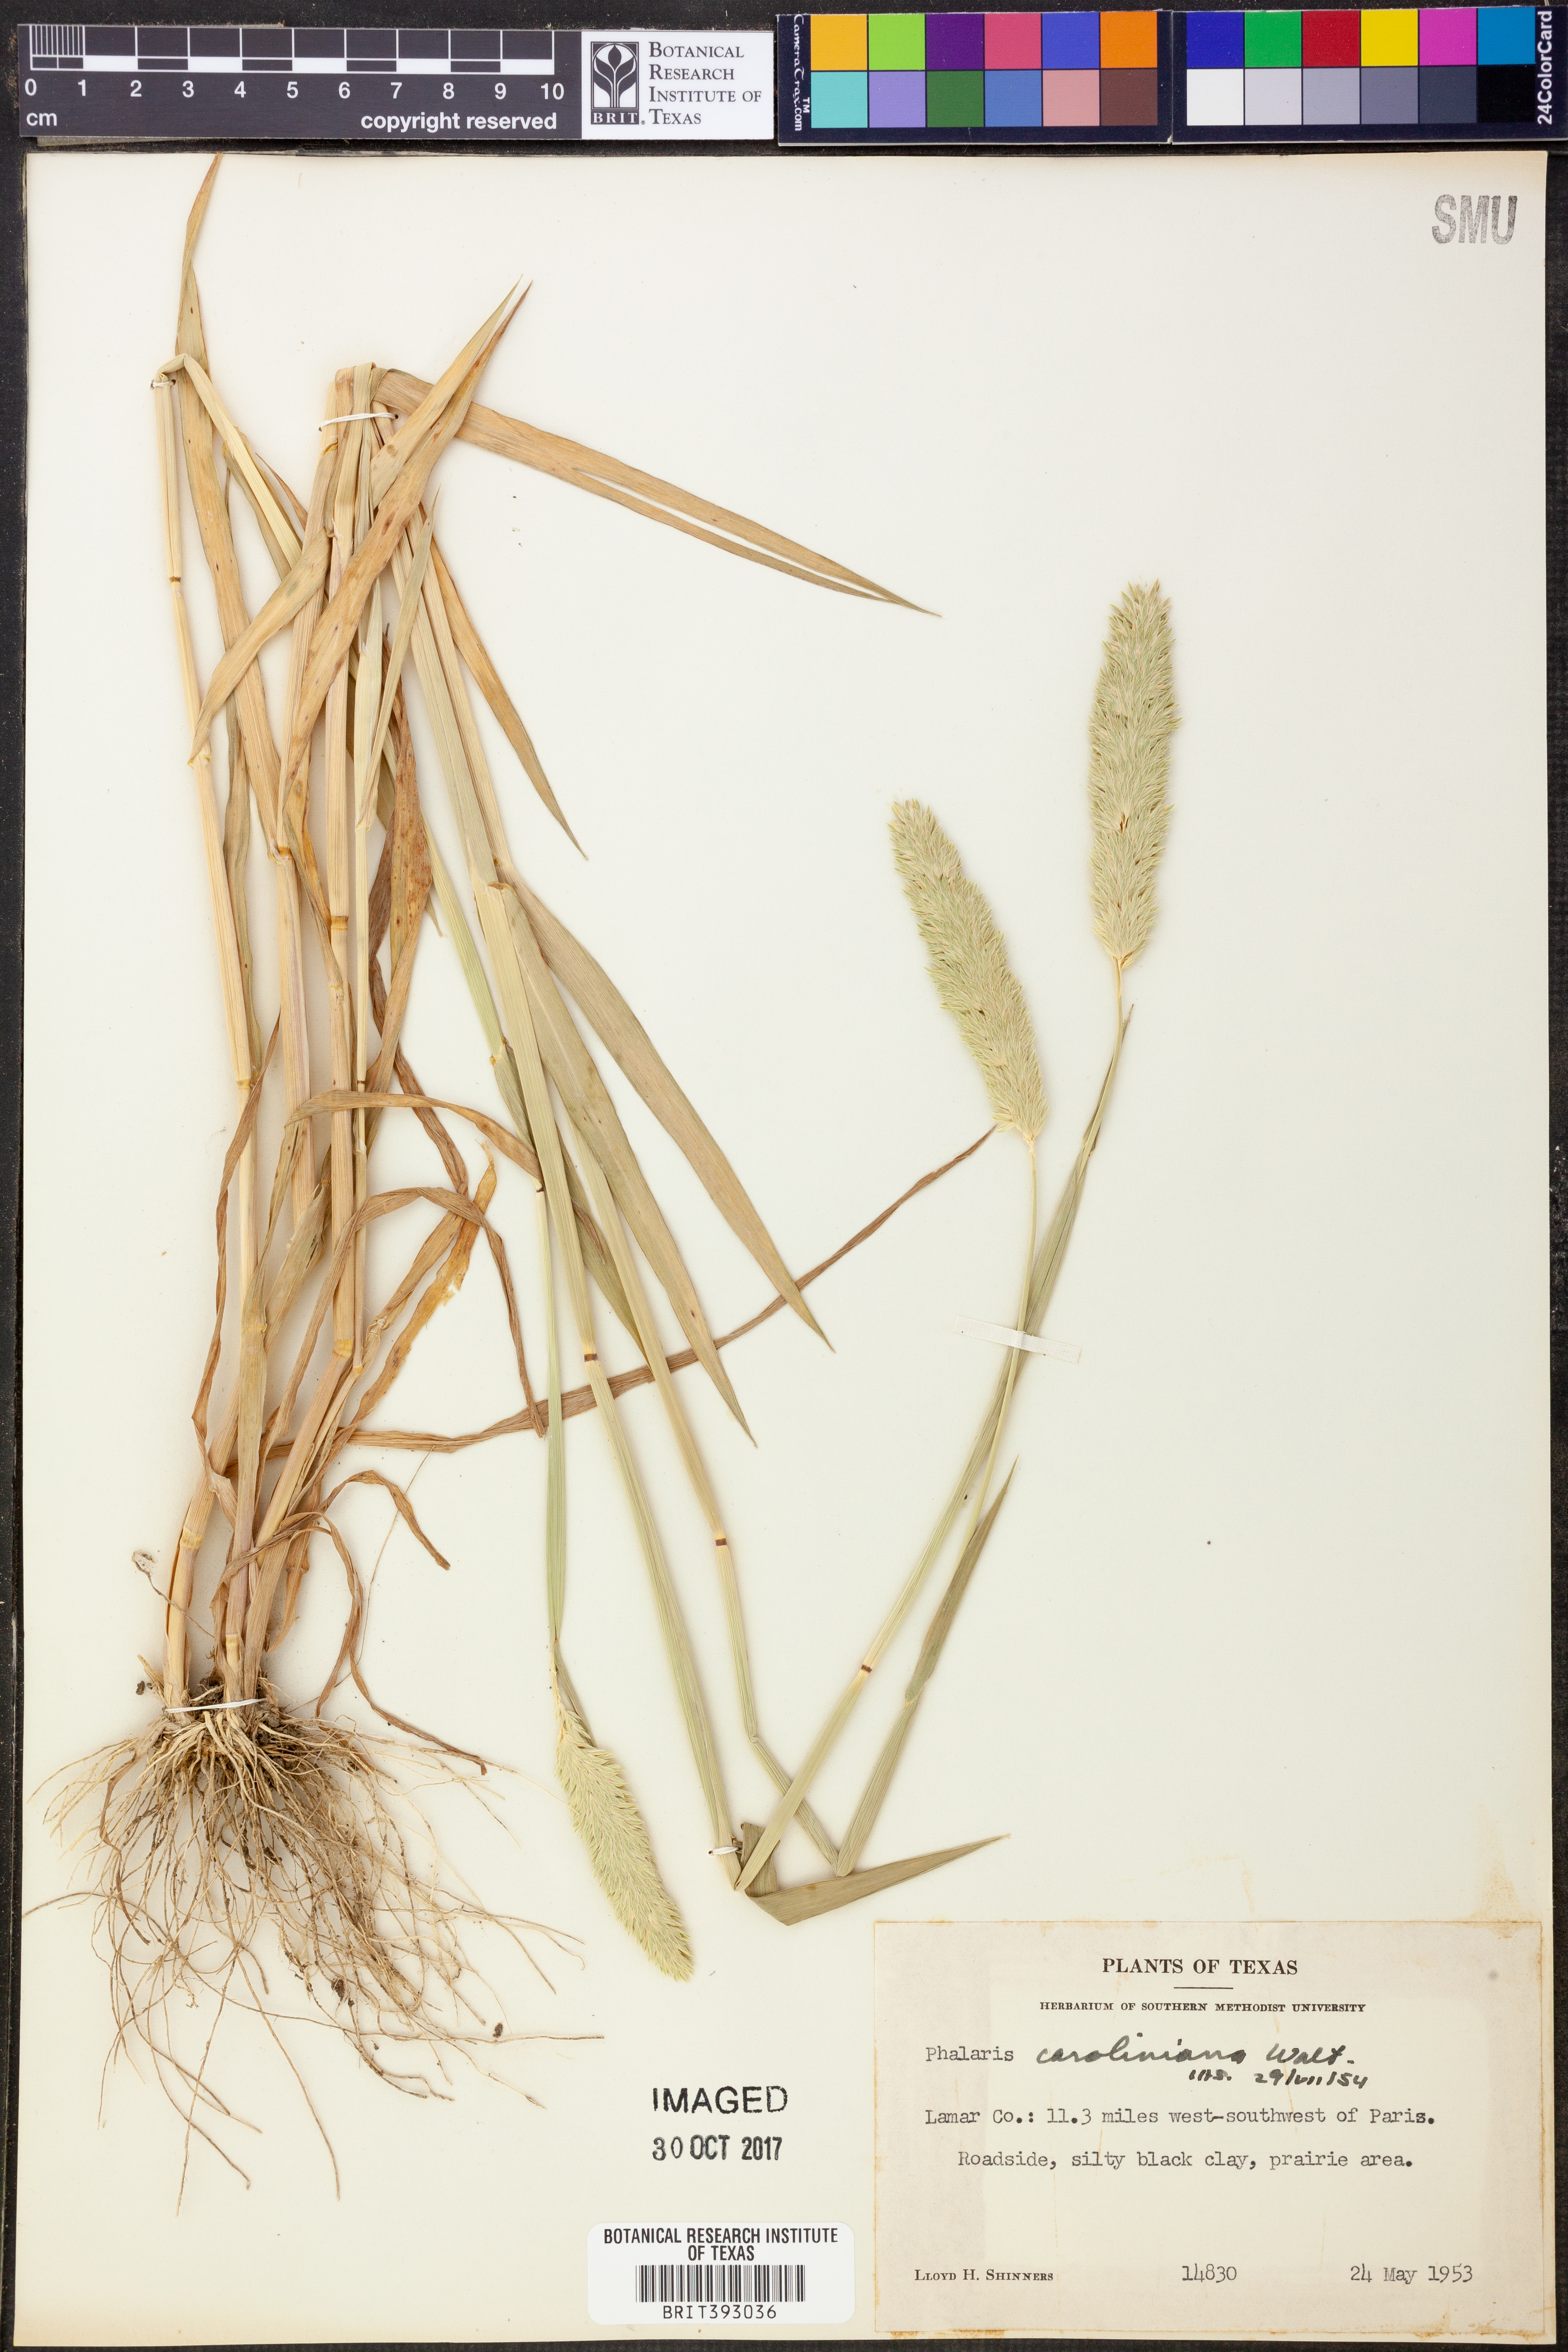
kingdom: Plantae
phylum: Tracheophyta
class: Liliopsida
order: Poales
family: Poaceae
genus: Phalaris
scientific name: Phalaris caroliniana
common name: May grass
